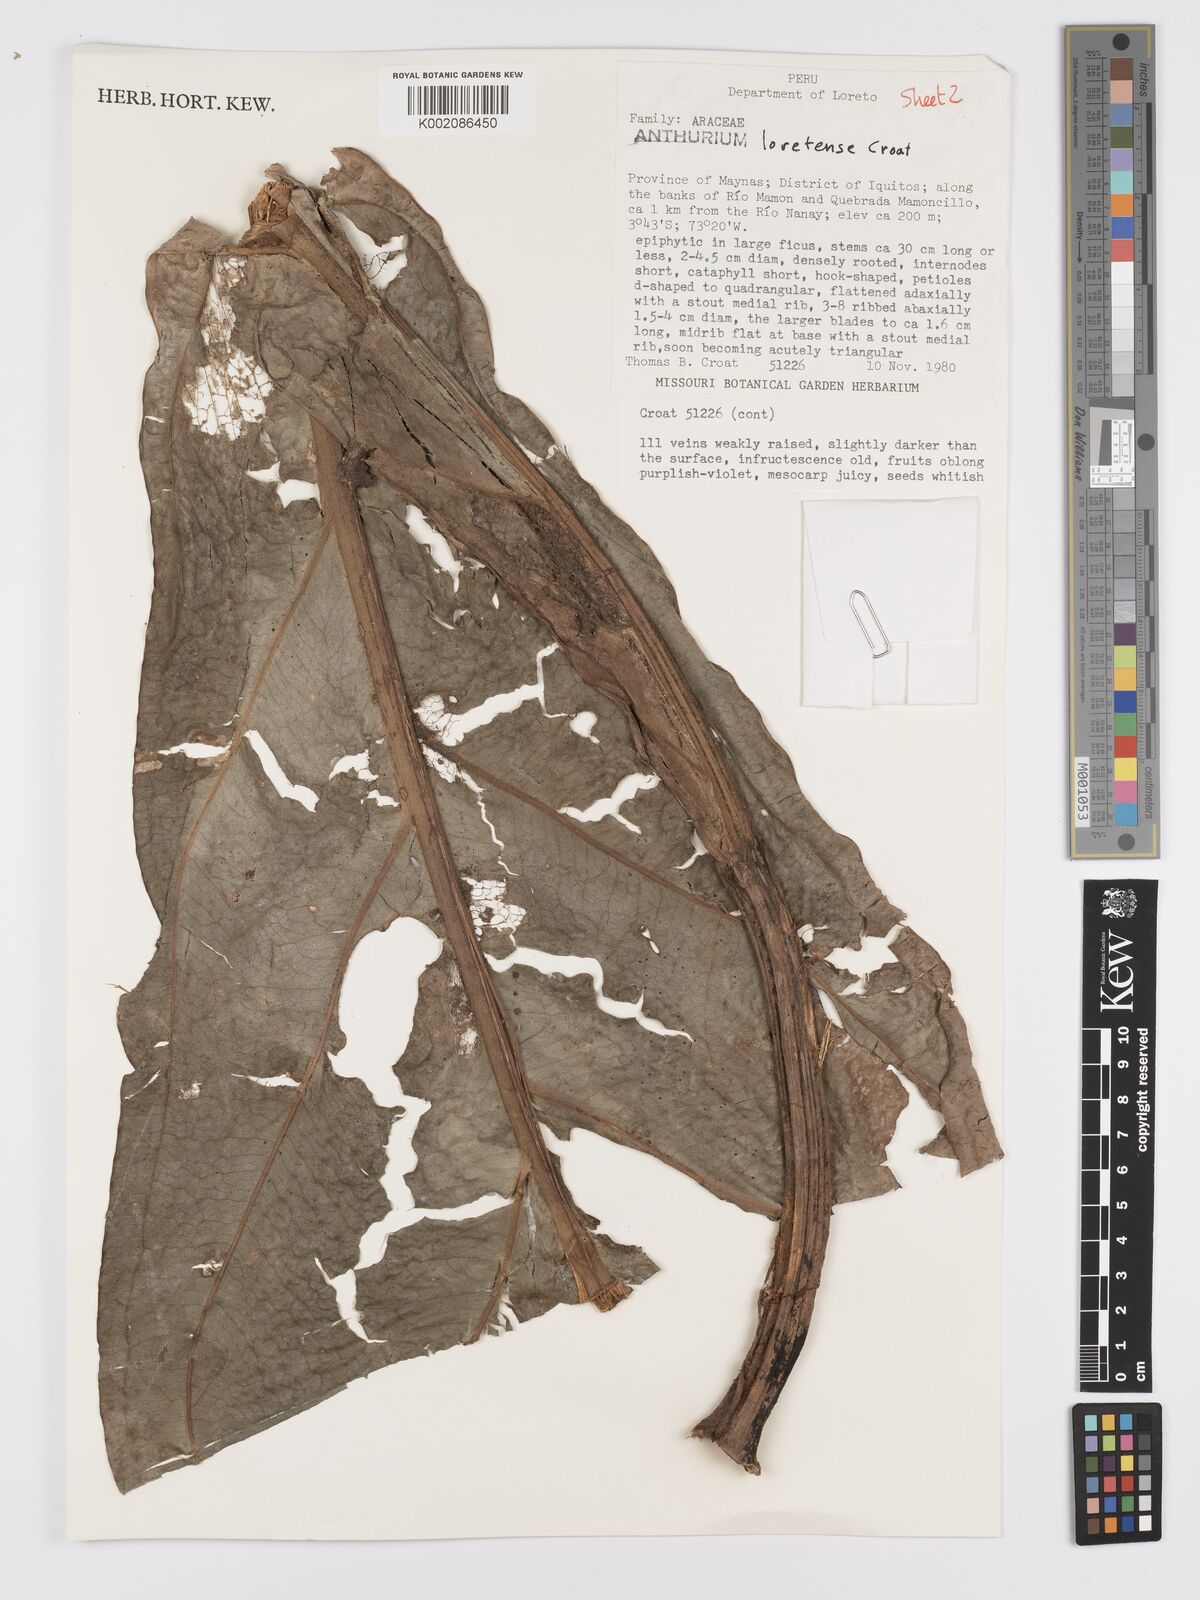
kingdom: Plantae
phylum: Tracheophyta
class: Liliopsida
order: Alismatales
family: Araceae
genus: Anthurium
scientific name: Anthurium loretense
